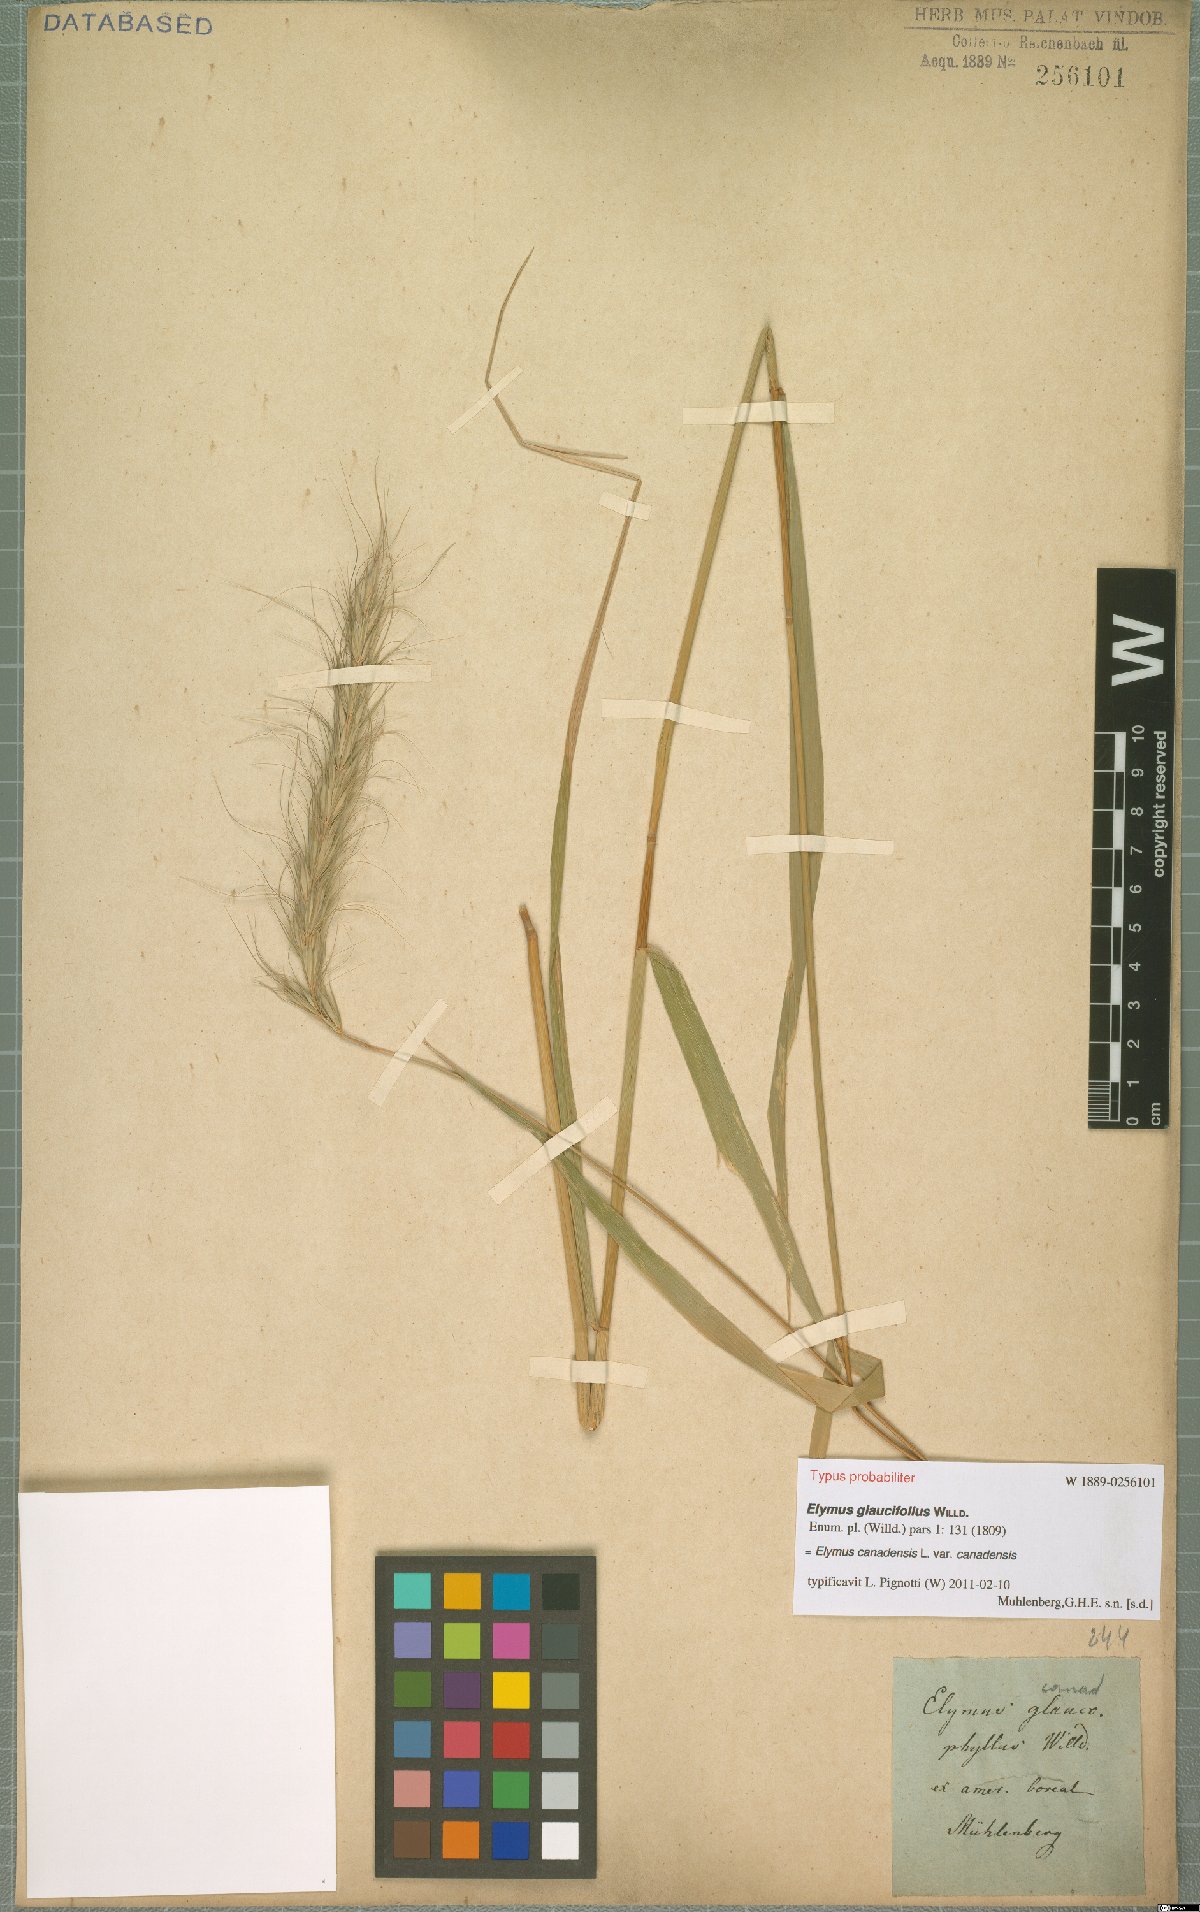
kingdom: Plantae
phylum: Tracheophyta
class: Liliopsida
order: Poales
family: Poaceae
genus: Elymus
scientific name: Elymus canadensis
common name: Canada wild rye
